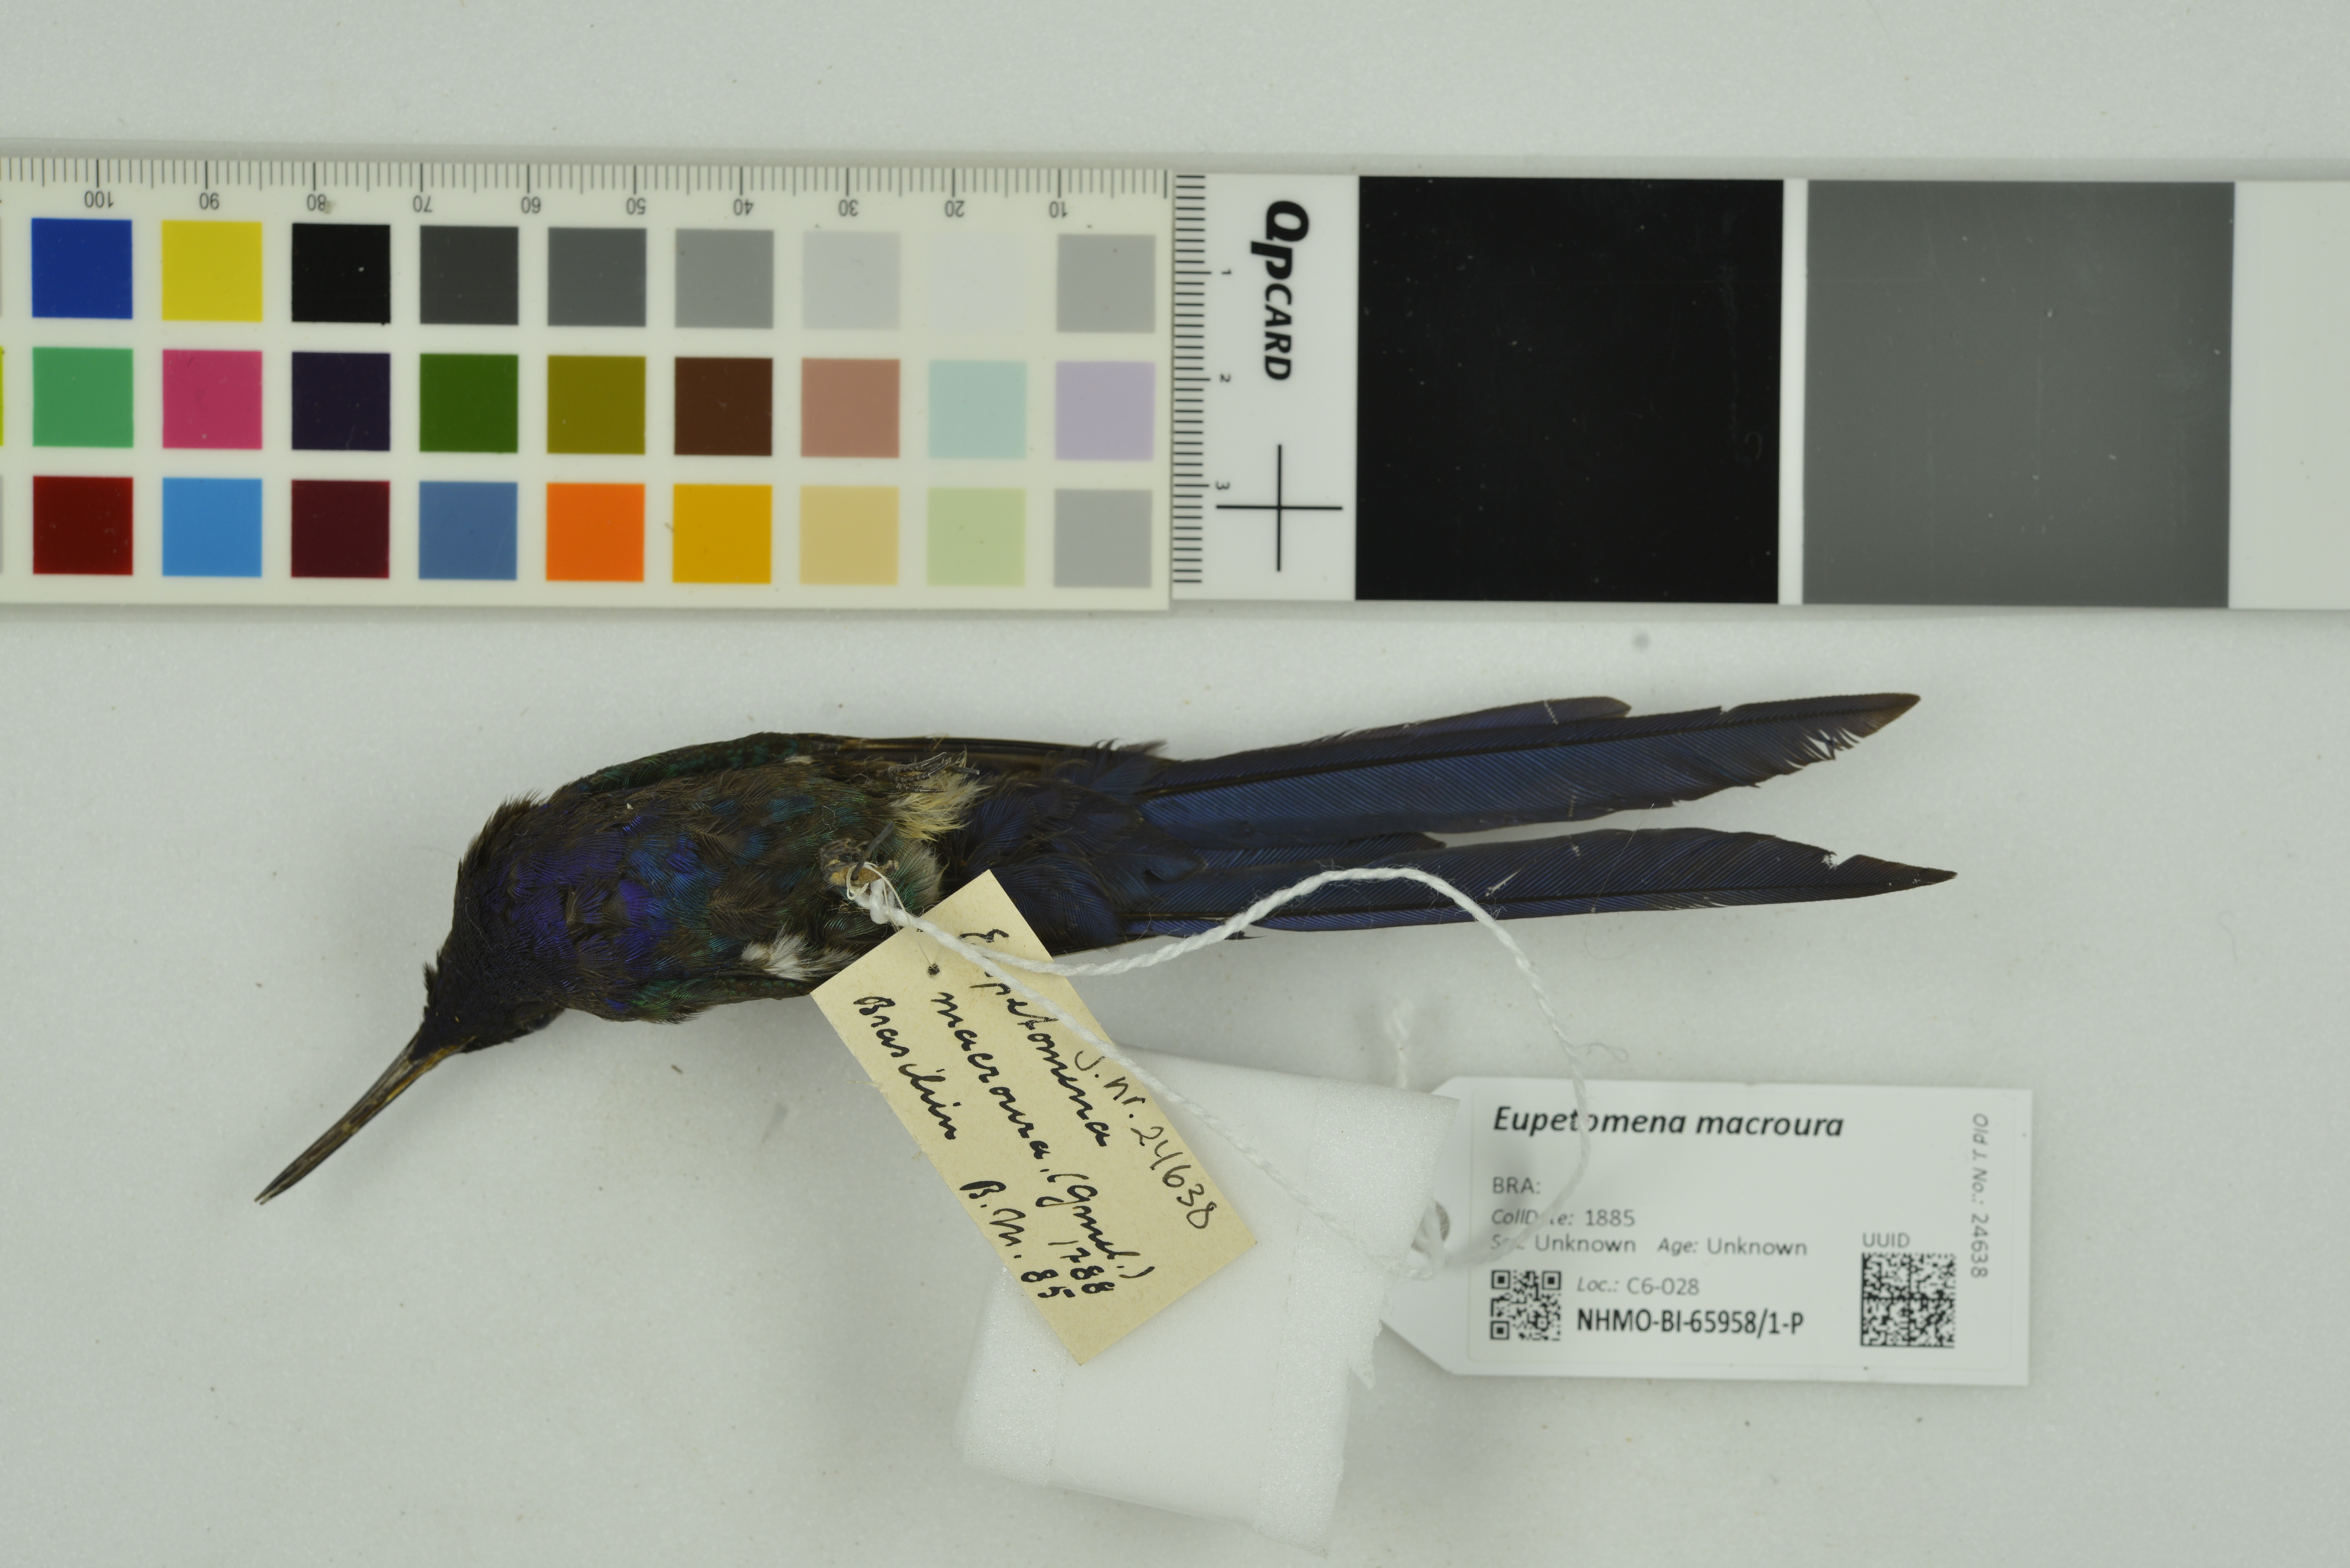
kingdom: Animalia
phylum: Chordata
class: Aves
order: Apodiformes
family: Trochilidae
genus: Eupetomena
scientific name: Eupetomena macroura
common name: Swallow-tailed hummingbird
